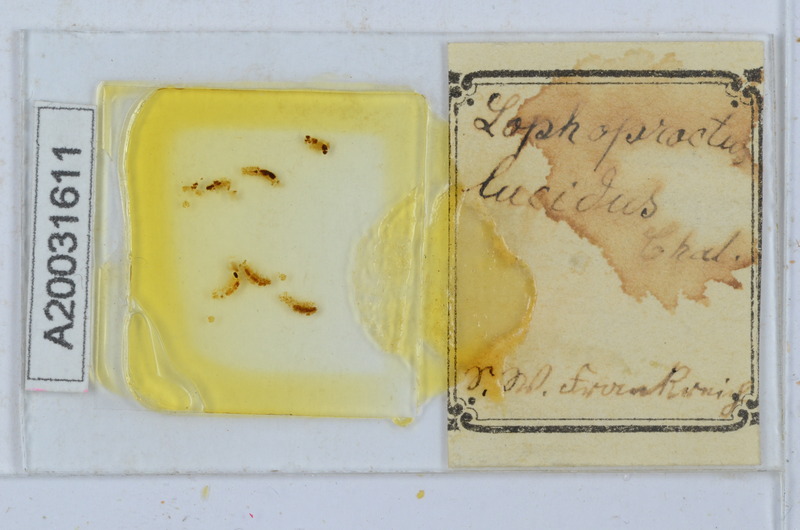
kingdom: Animalia
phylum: Arthropoda
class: Diplopoda
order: Polyxenida
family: Lophoproctidae
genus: Lophoproctus
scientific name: Lophoproctus lucidus
